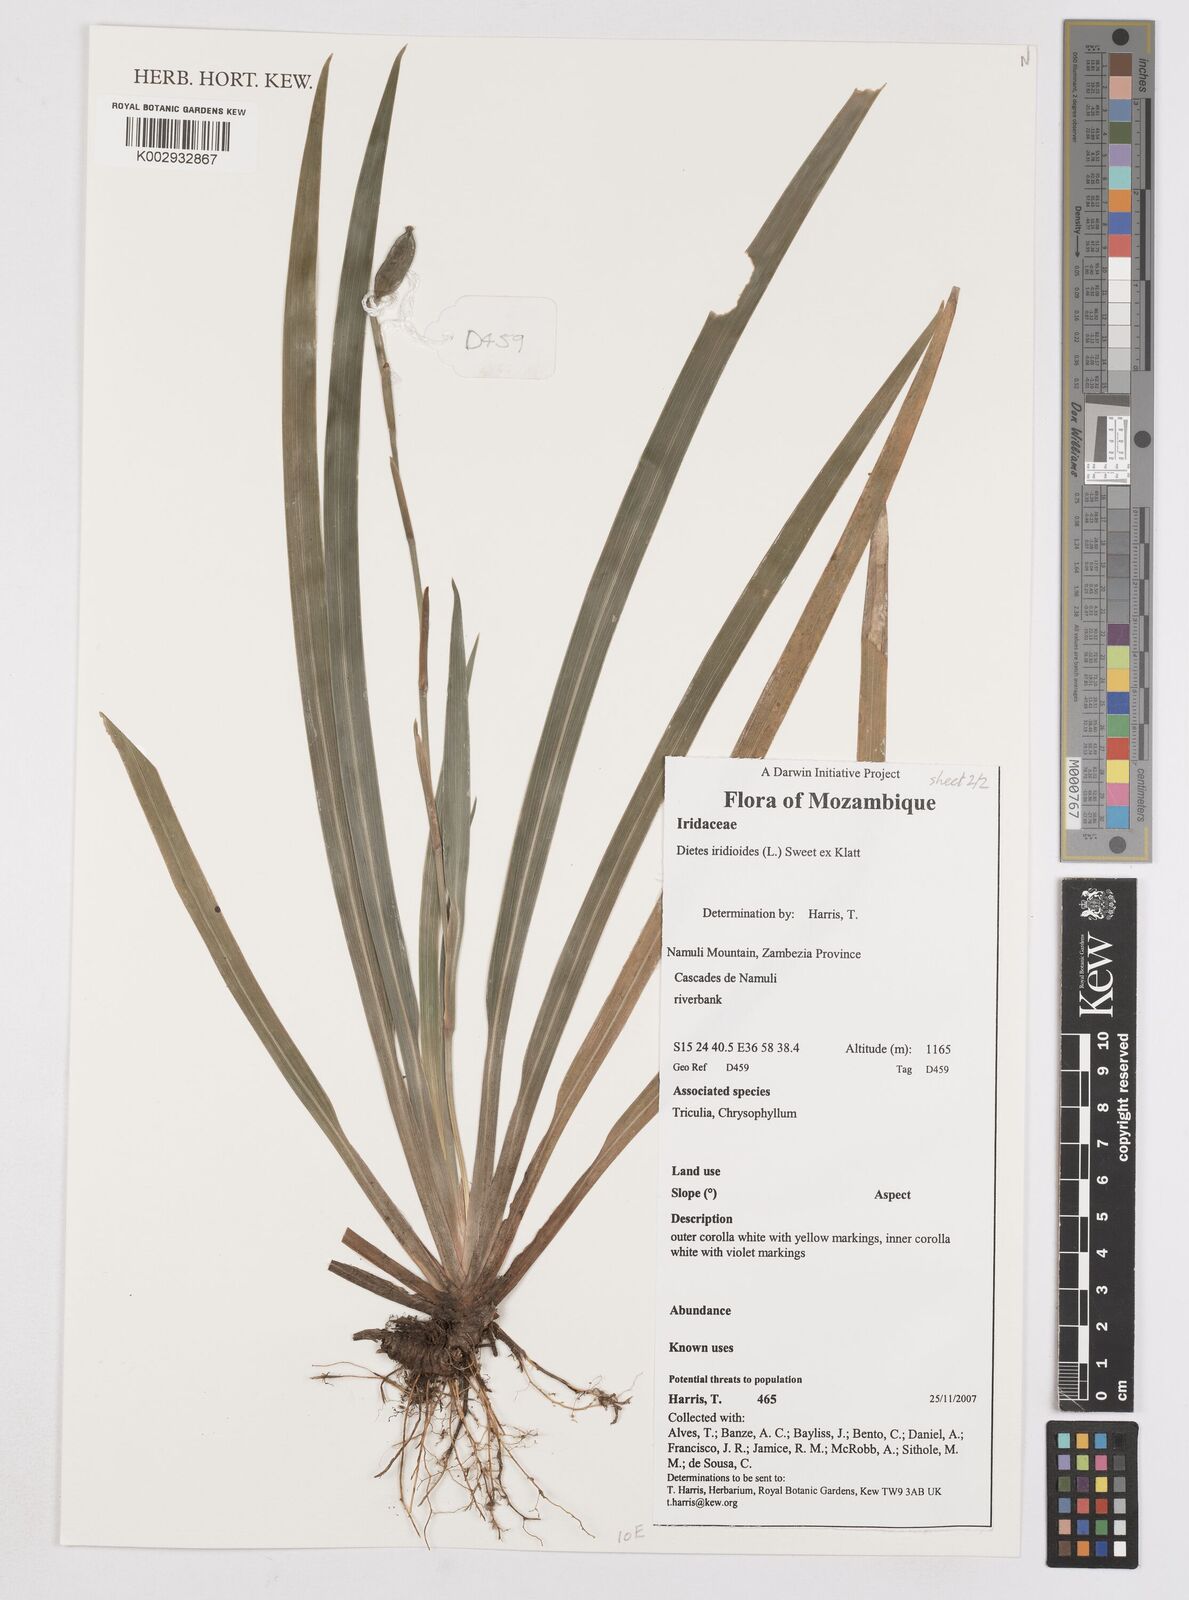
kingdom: Plantae
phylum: Tracheophyta
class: Liliopsida
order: Asparagales
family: Iridaceae
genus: Dietes
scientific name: Dietes iridioides
